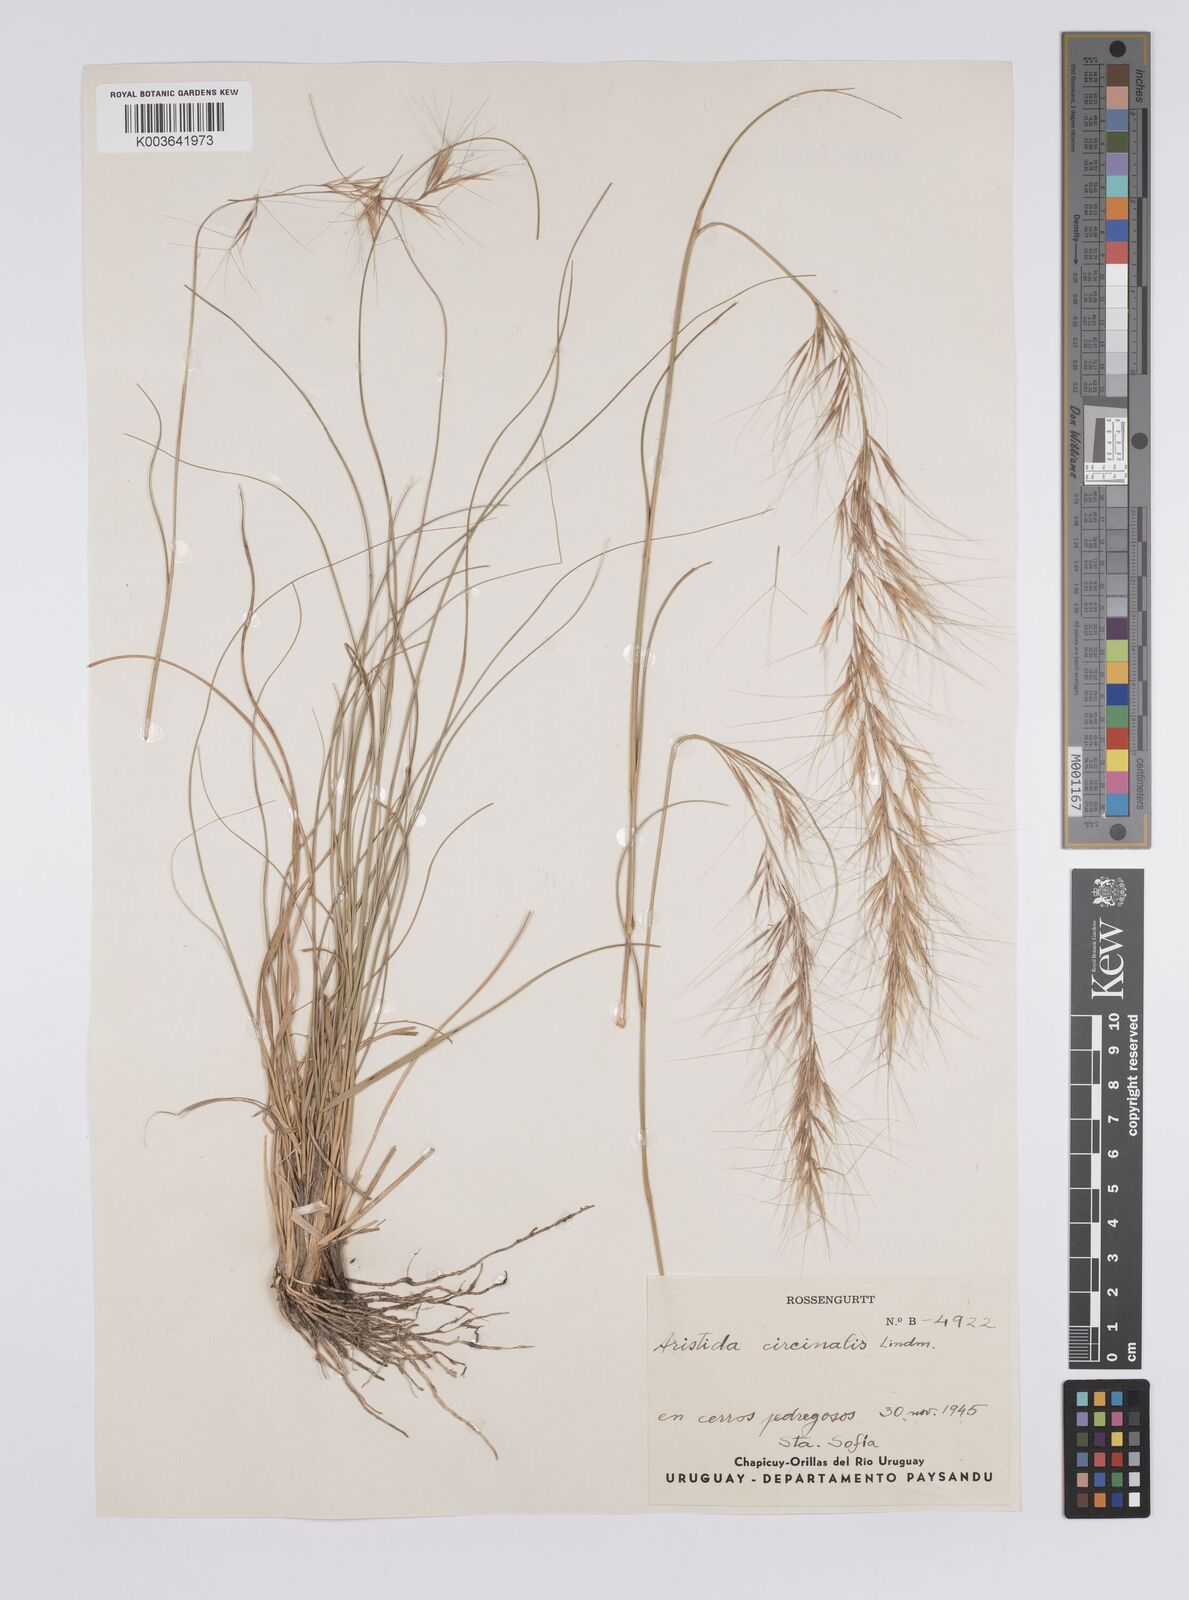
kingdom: Plantae
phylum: Tracheophyta
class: Liliopsida
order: Poales
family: Poaceae
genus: Aristida
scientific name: Aristida circinalis
